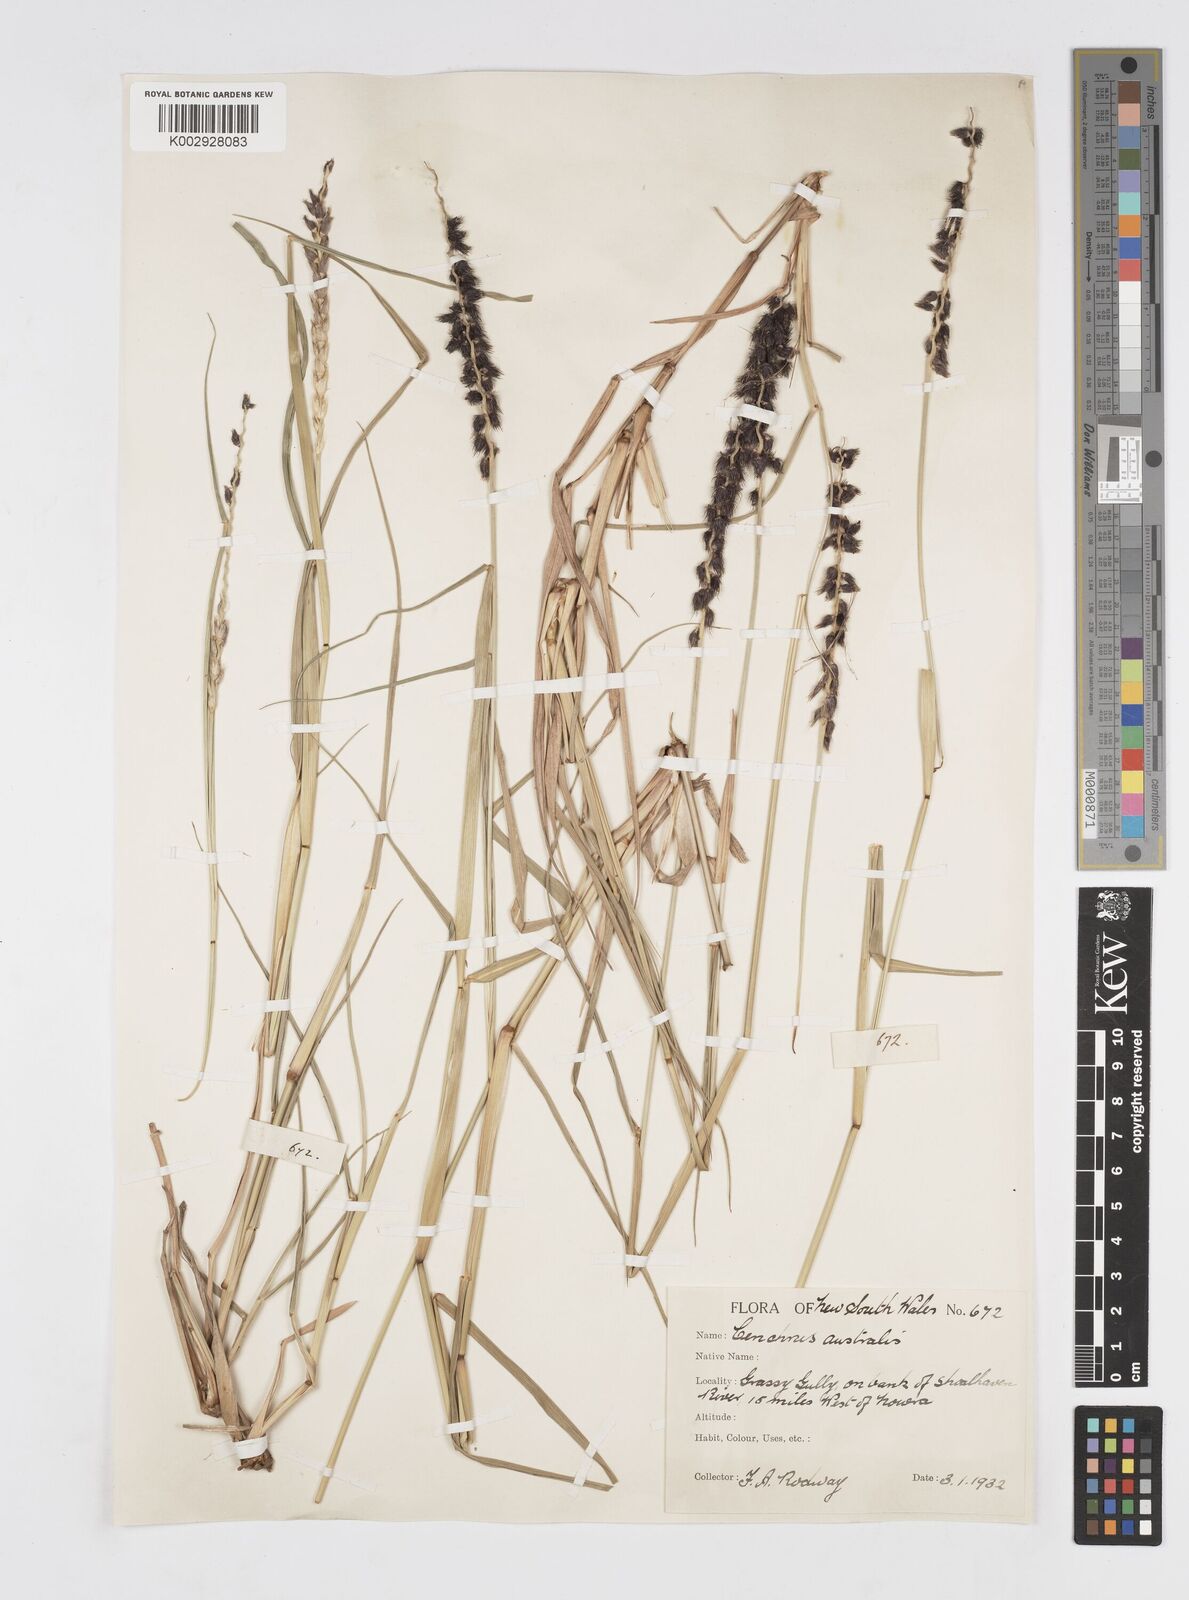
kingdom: Plantae
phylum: Tracheophyta
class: Liliopsida
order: Poales
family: Poaceae
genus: Cenchrus
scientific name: Cenchrus caliculatus
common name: Large bur grass
